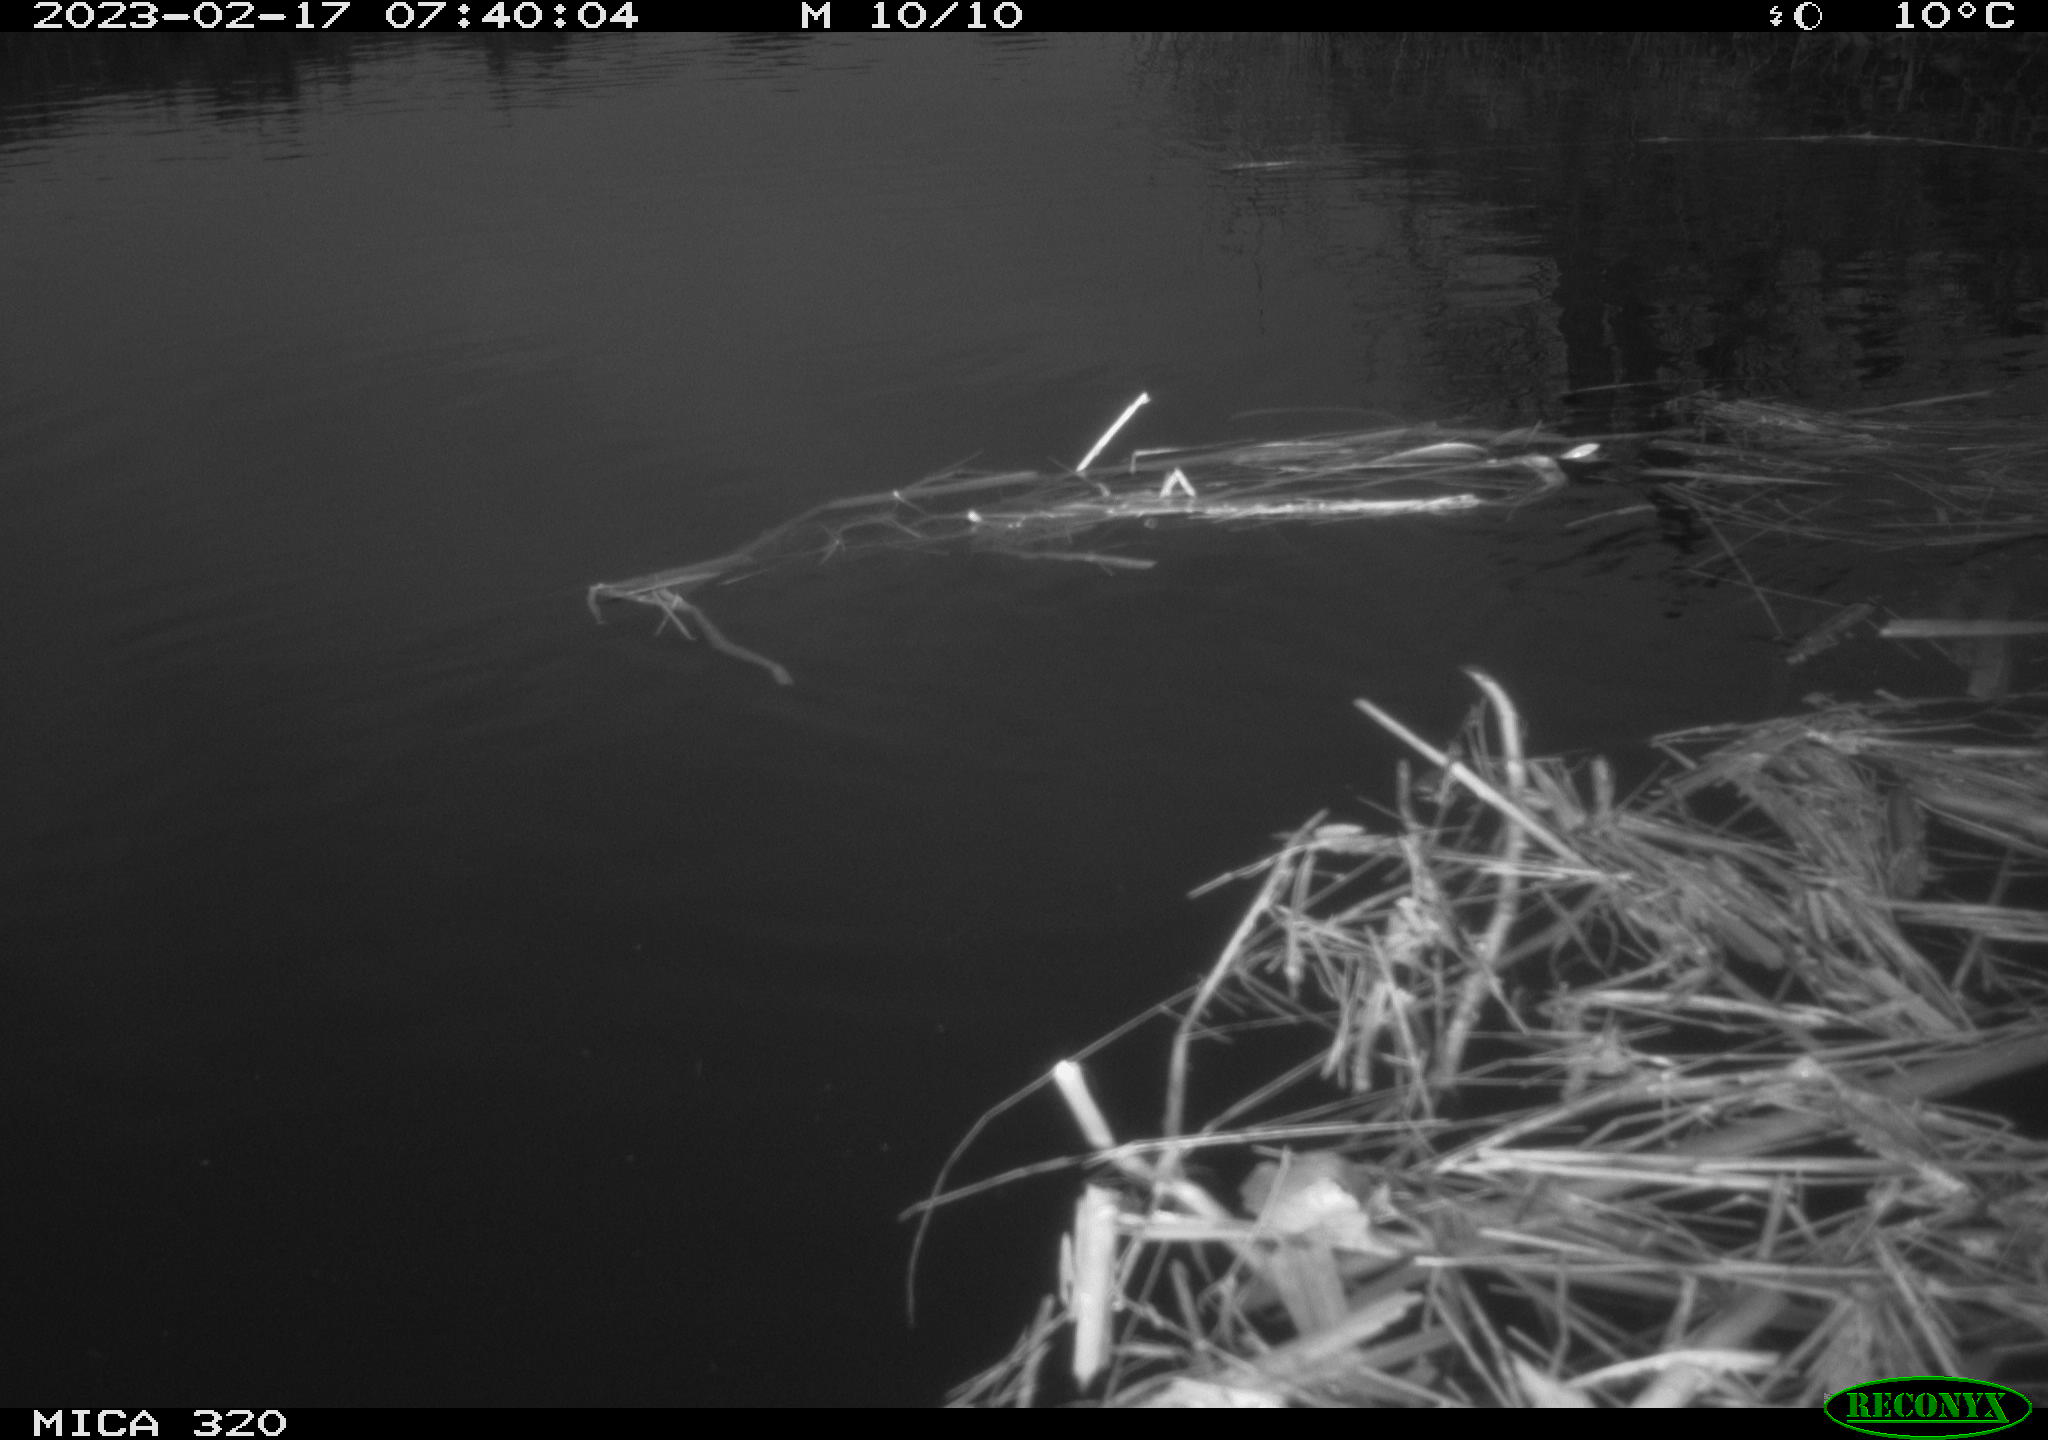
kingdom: Animalia
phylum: Chordata
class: Aves
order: Gruiformes
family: Rallidae
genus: Fulica
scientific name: Fulica atra
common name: Eurasian coot
